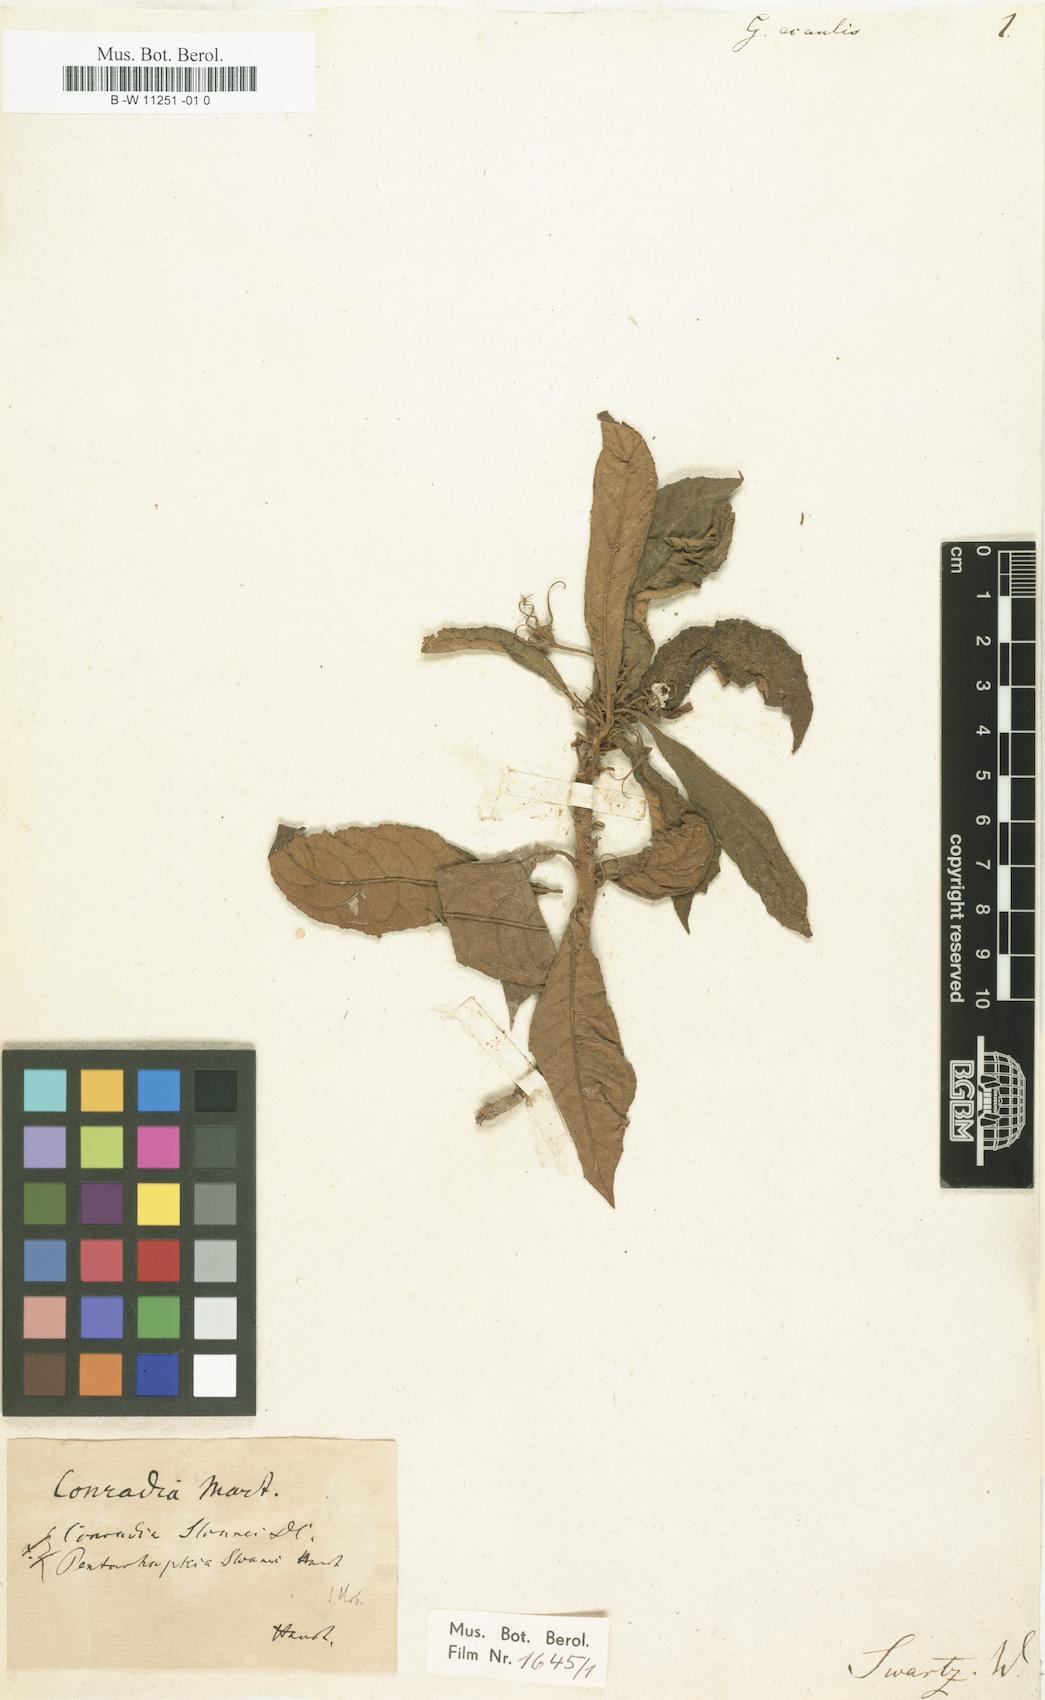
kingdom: Plantae
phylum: Tracheophyta
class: Magnoliopsida
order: Lamiales
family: Gesneriaceae
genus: Gesneria
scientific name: Gesneria acaulis
